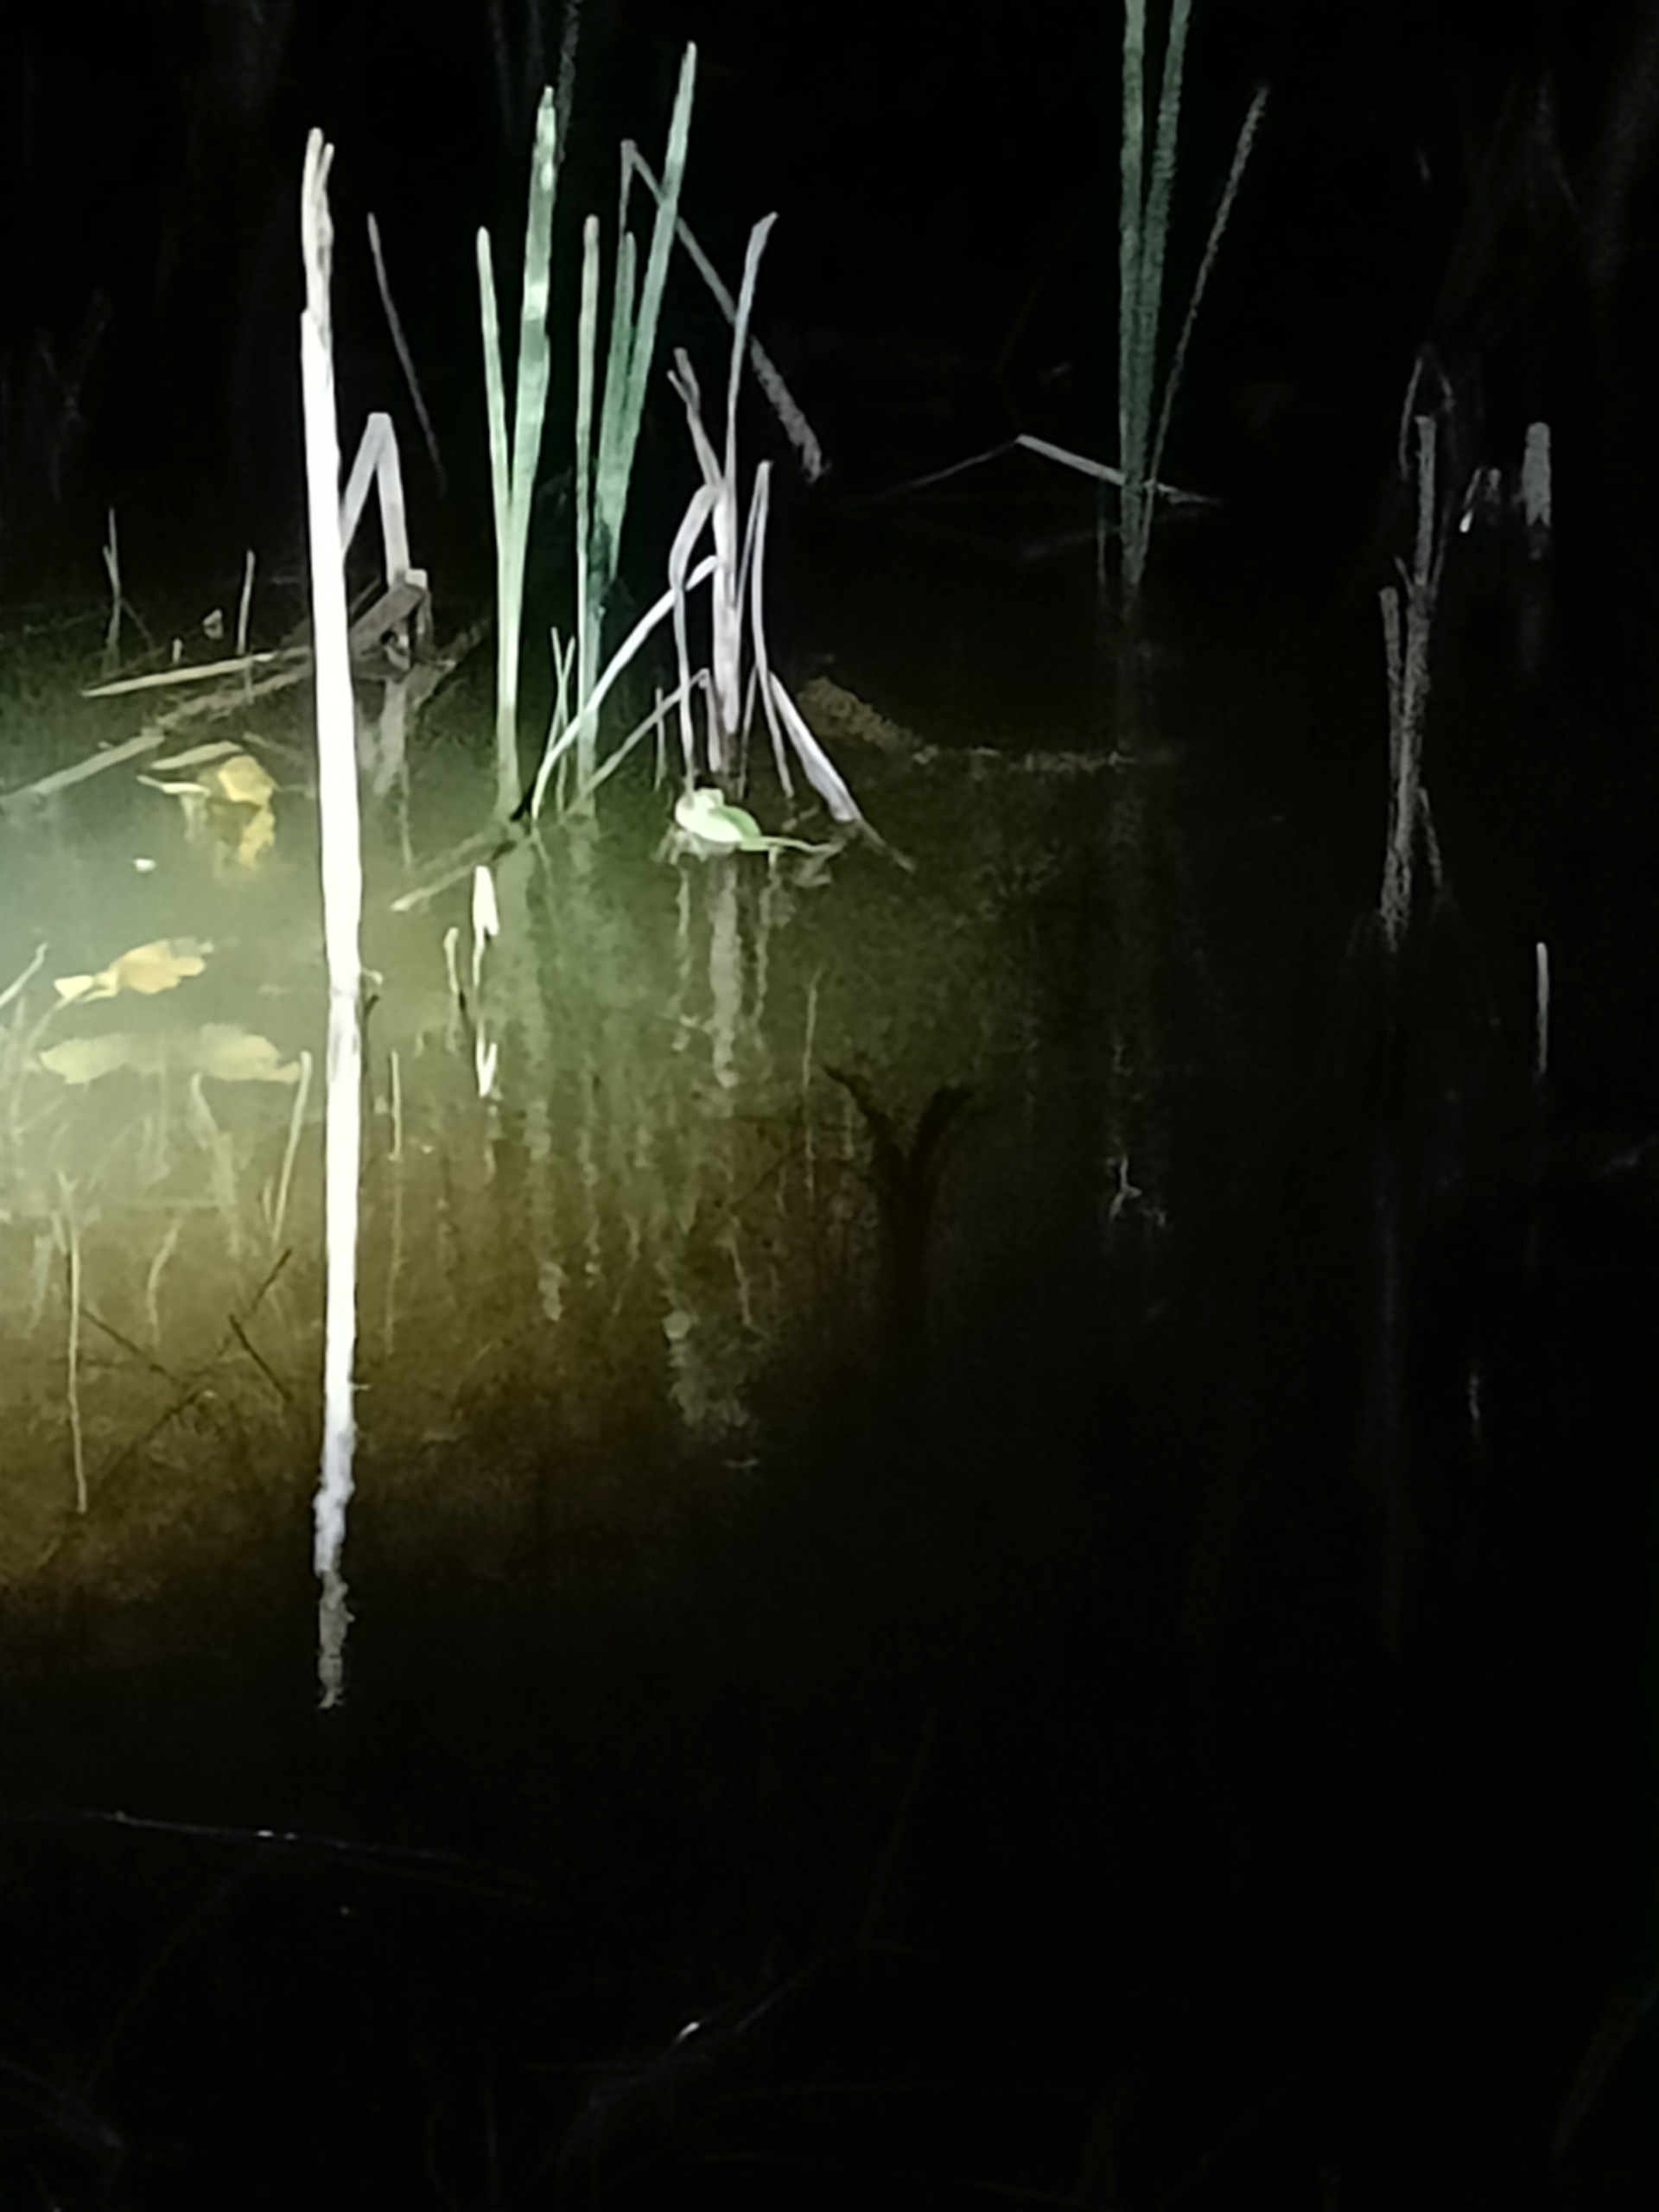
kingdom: Animalia
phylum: Chordata
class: Amphibia
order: Anura
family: Hylidae
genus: Hyla
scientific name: Hyla arborea
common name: Løvfrø
